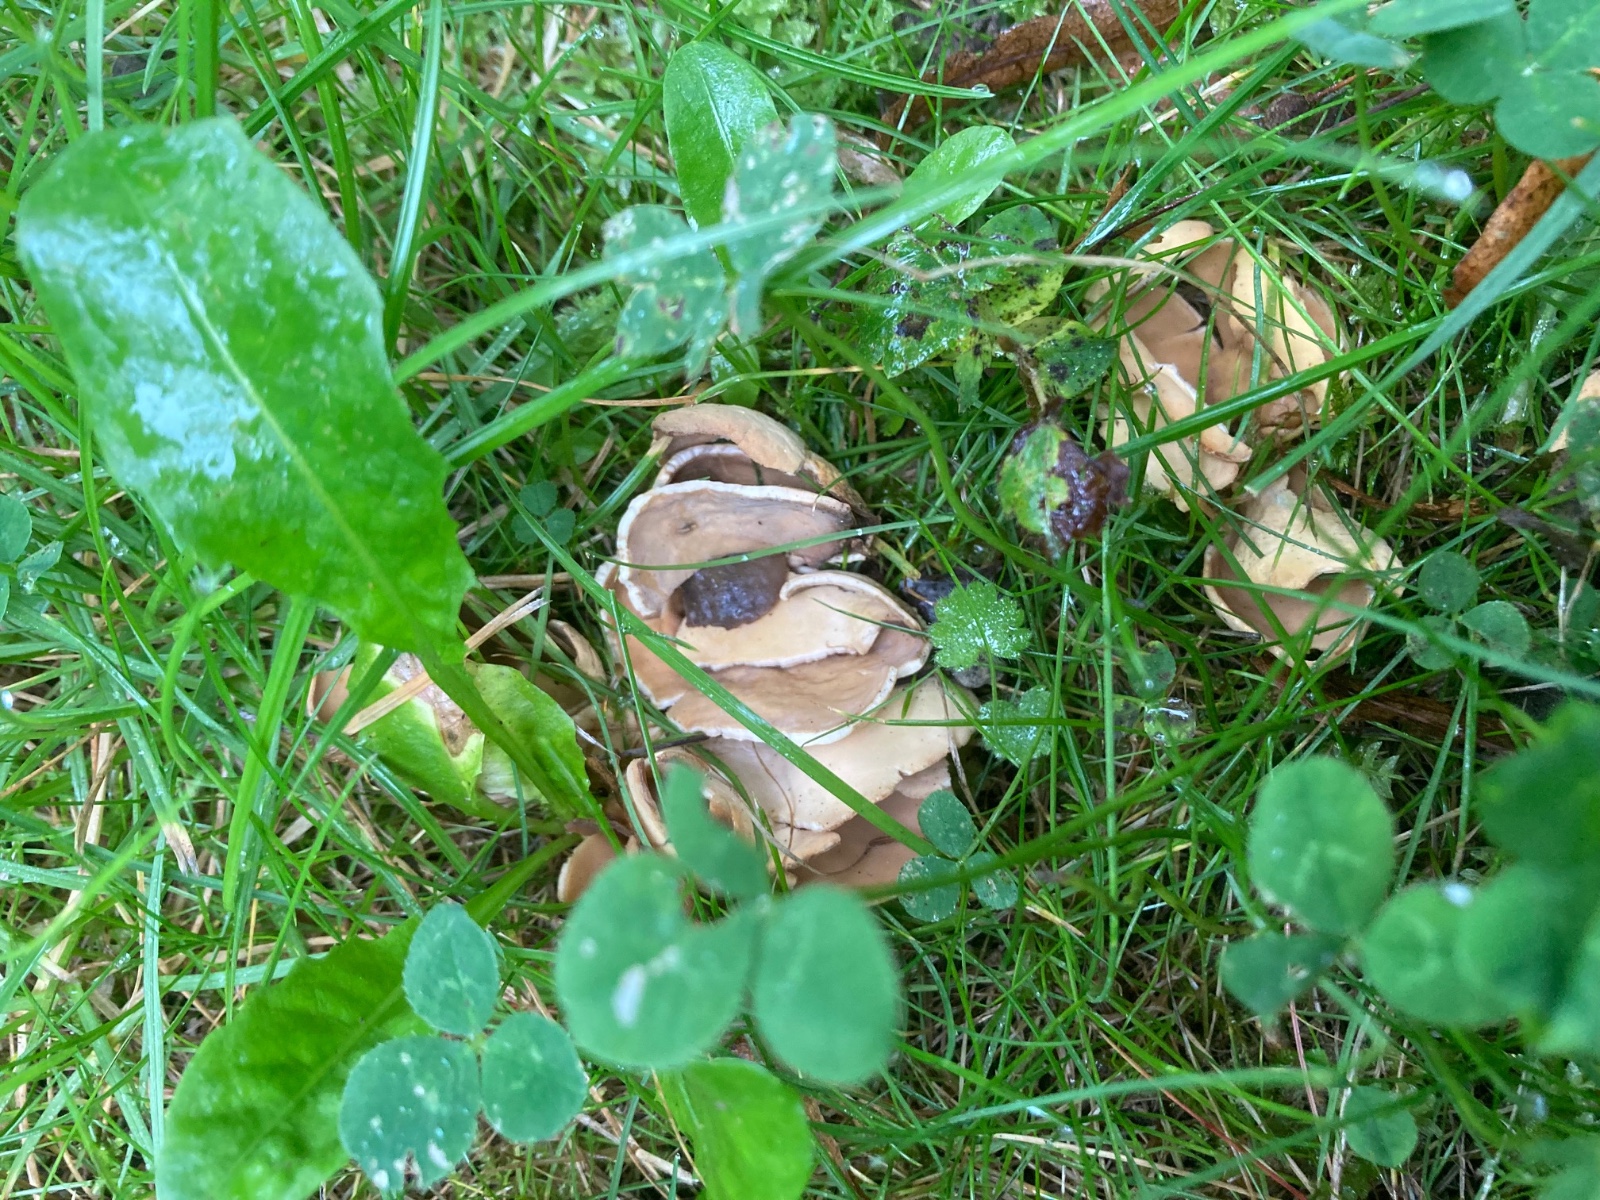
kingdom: Fungi
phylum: Ascomycota
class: Pezizomycetes
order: Pezizales
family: Otideaceae
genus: Otidea
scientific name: Otidea alutacea
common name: læder-ørebæger
